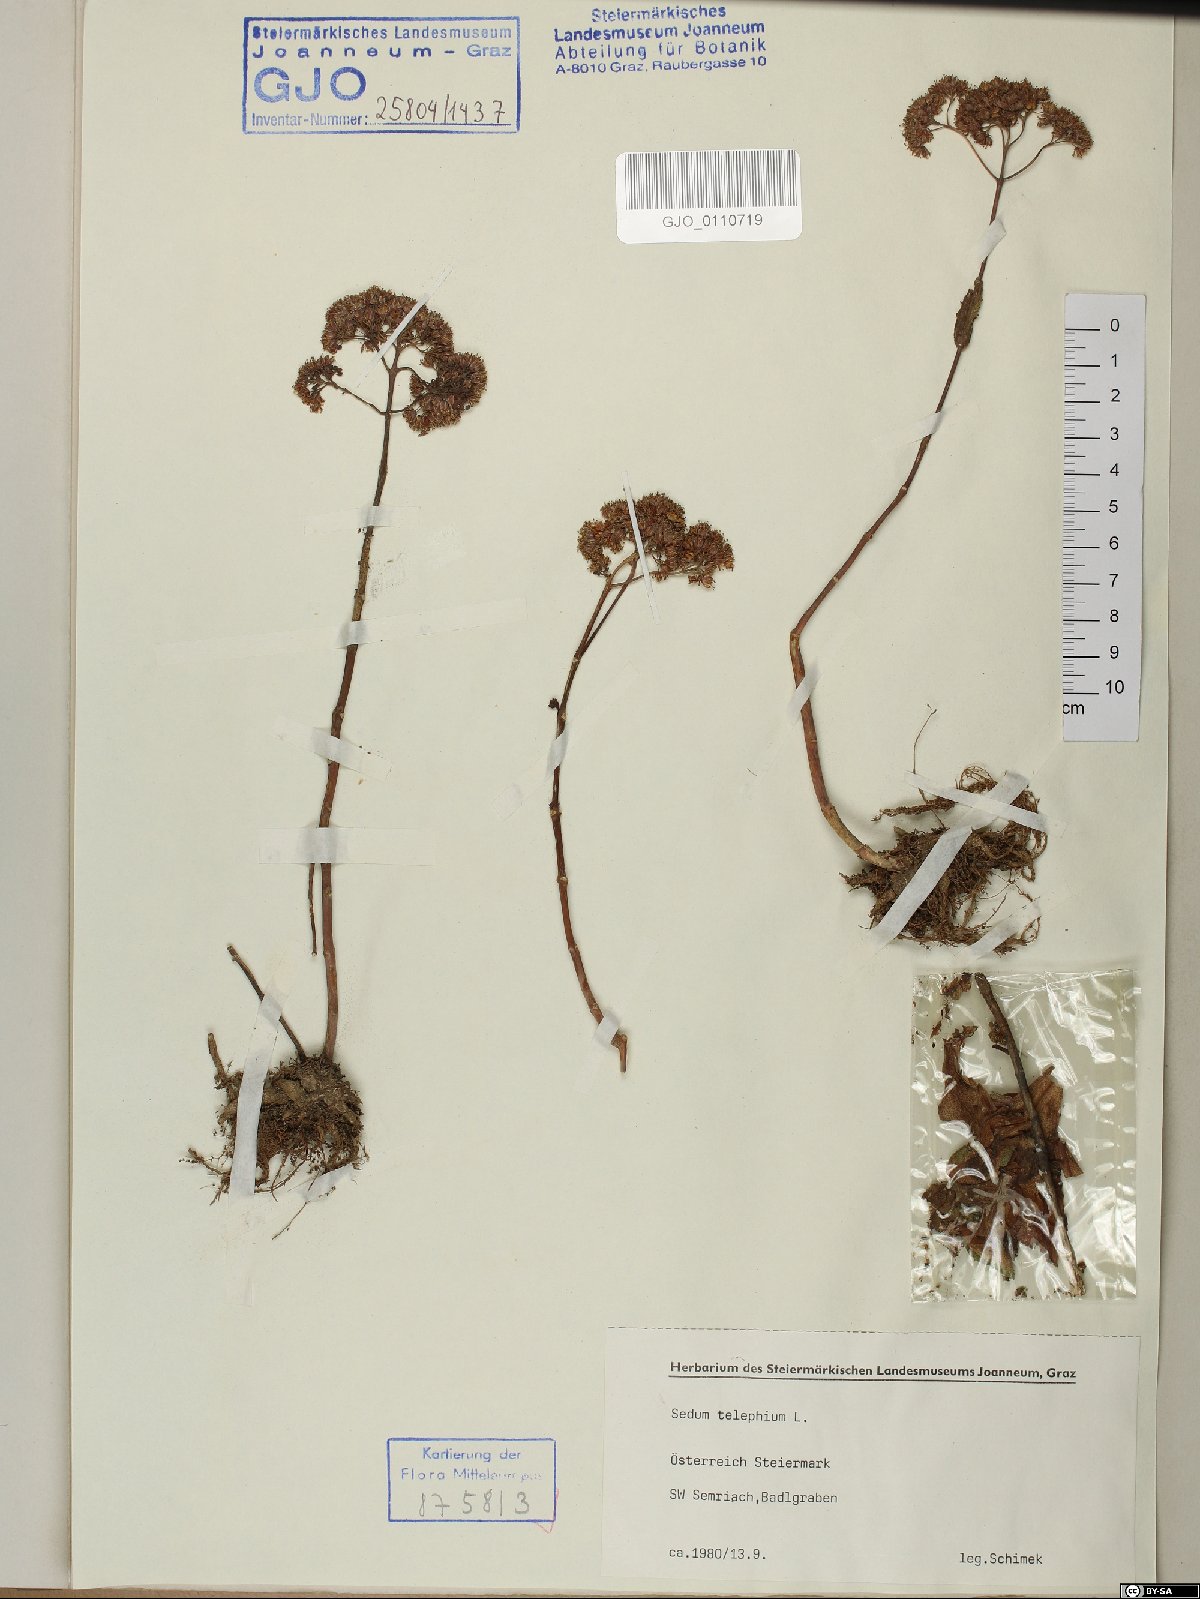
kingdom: Plantae
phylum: Tracheophyta
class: Magnoliopsida
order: Saxifragales
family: Crassulaceae
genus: Hylotelephium
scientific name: Hylotelephium telephium
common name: Live-forever
